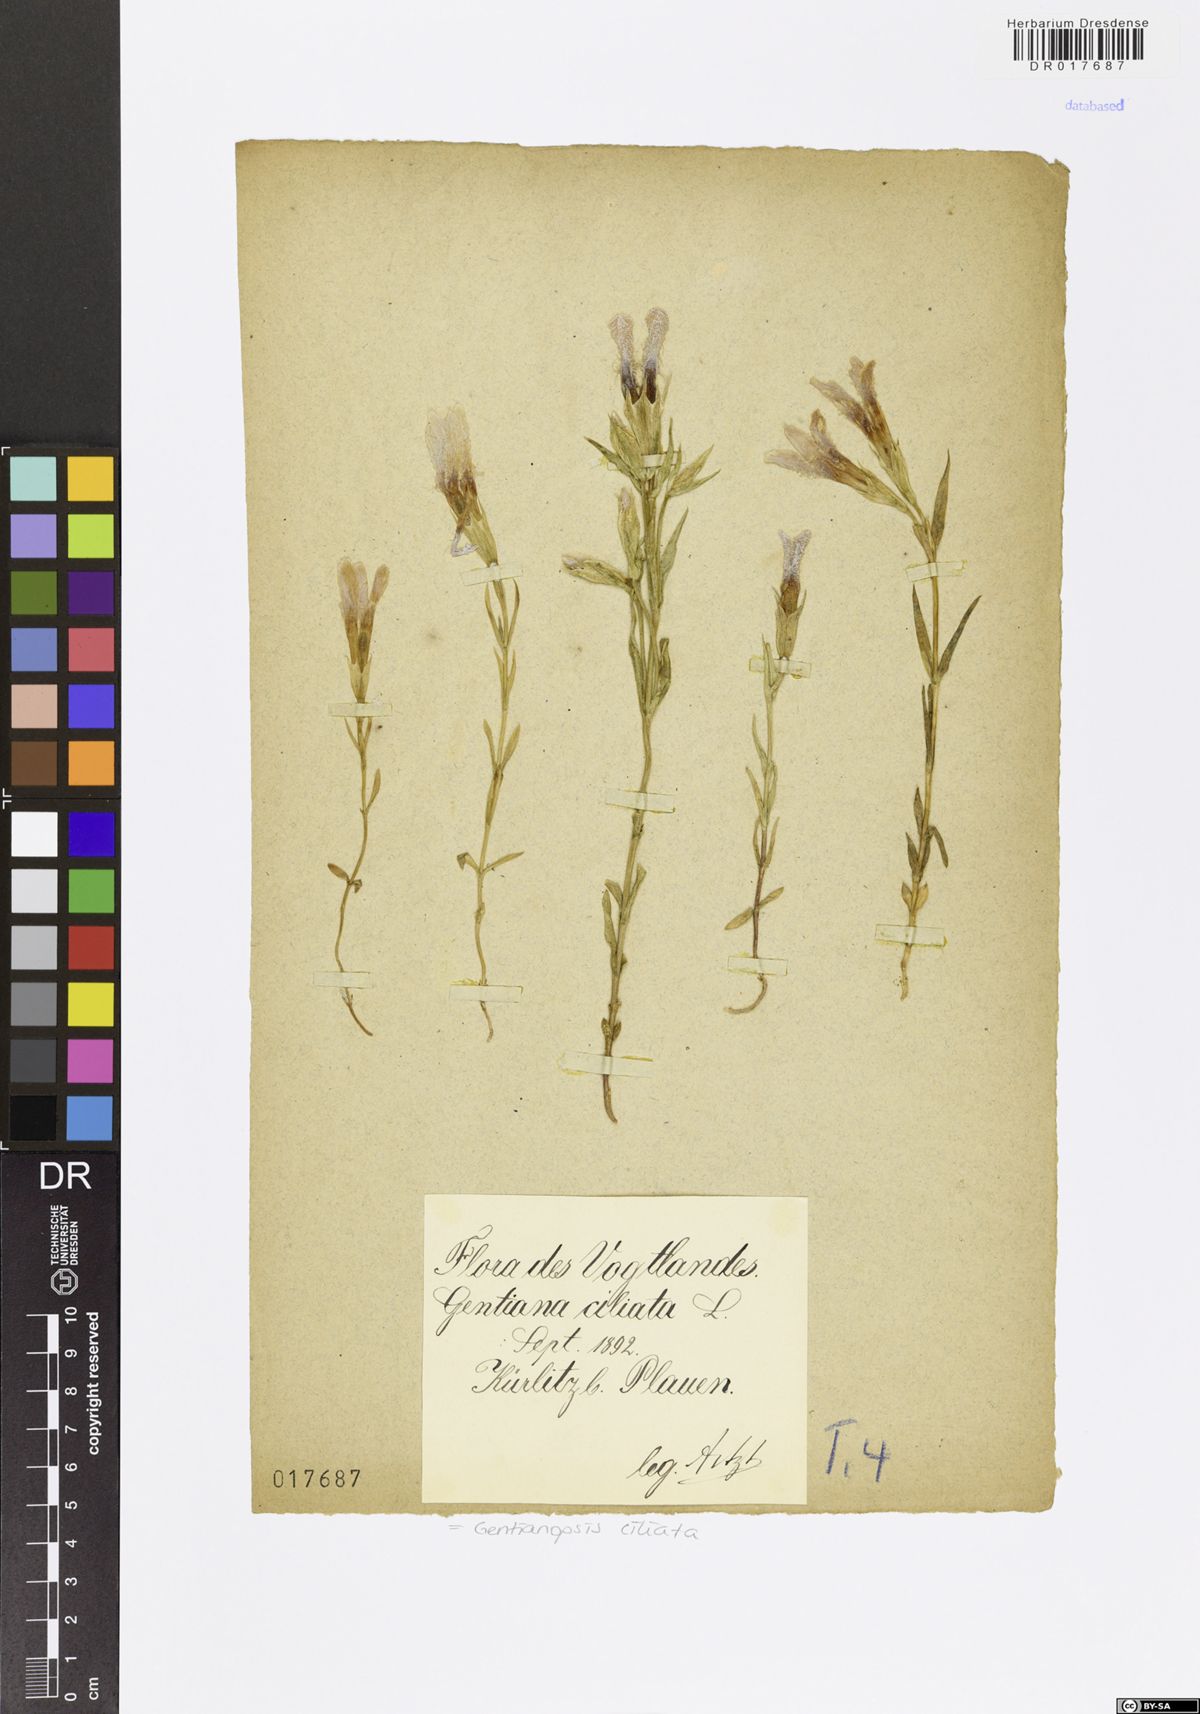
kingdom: Plantae
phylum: Tracheophyta
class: Magnoliopsida
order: Gentianales
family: Gentianaceae
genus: Gentianopsis
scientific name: Gentianopsis ciliata
